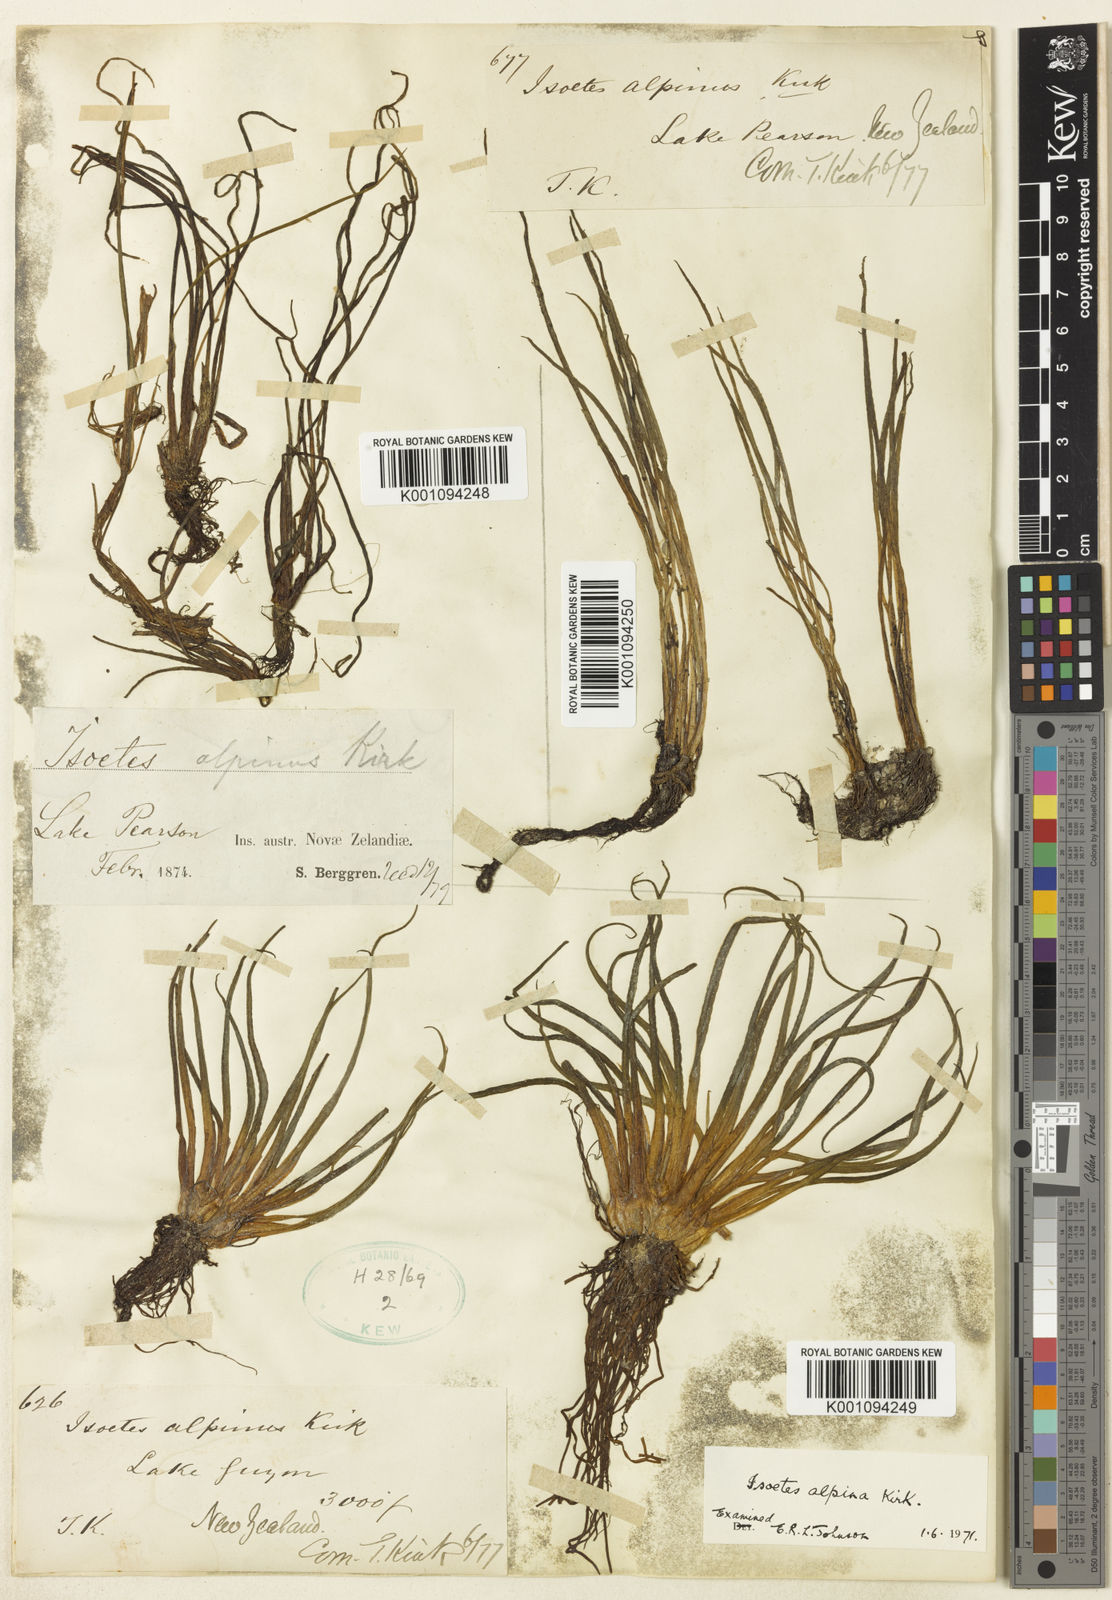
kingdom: Plantae
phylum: Tracheophyta
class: Lycopodiopsida
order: Isoetales
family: Isoetaceae
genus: Isoetes
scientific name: Isoetes alpina
